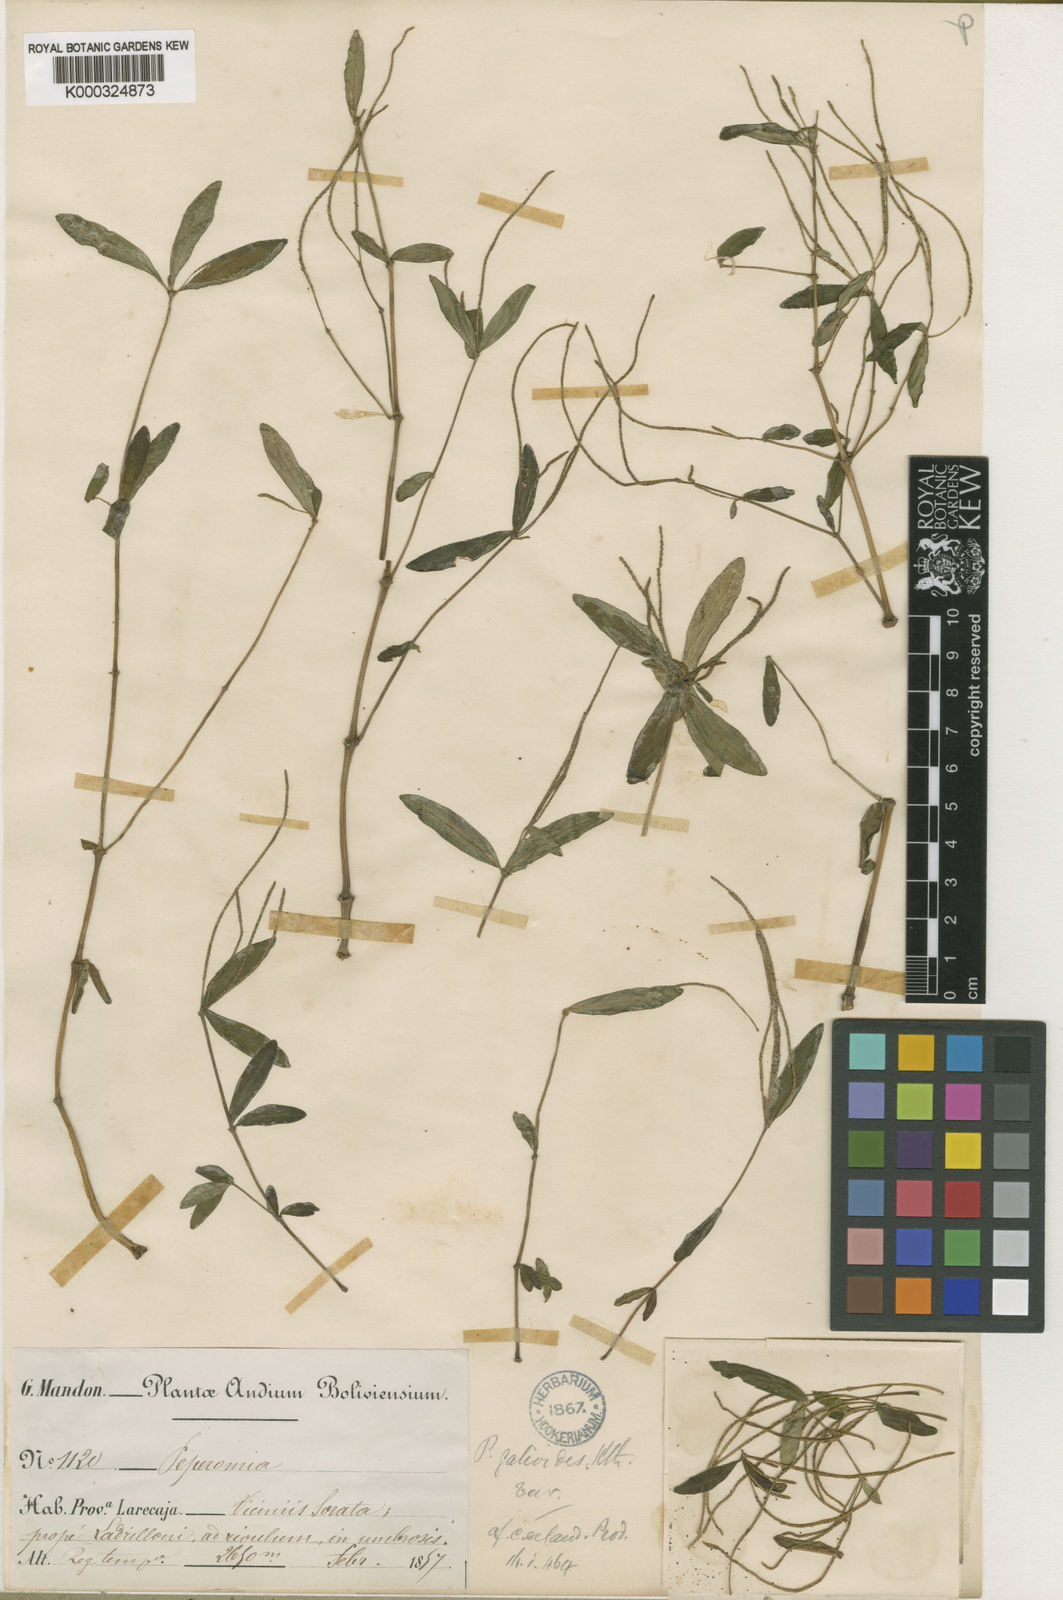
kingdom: Plantae
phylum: Tracheophyta
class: Magnoliopsida
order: Piperales
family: Piperaceae
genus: Peperomia
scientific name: Peperomia galioides
